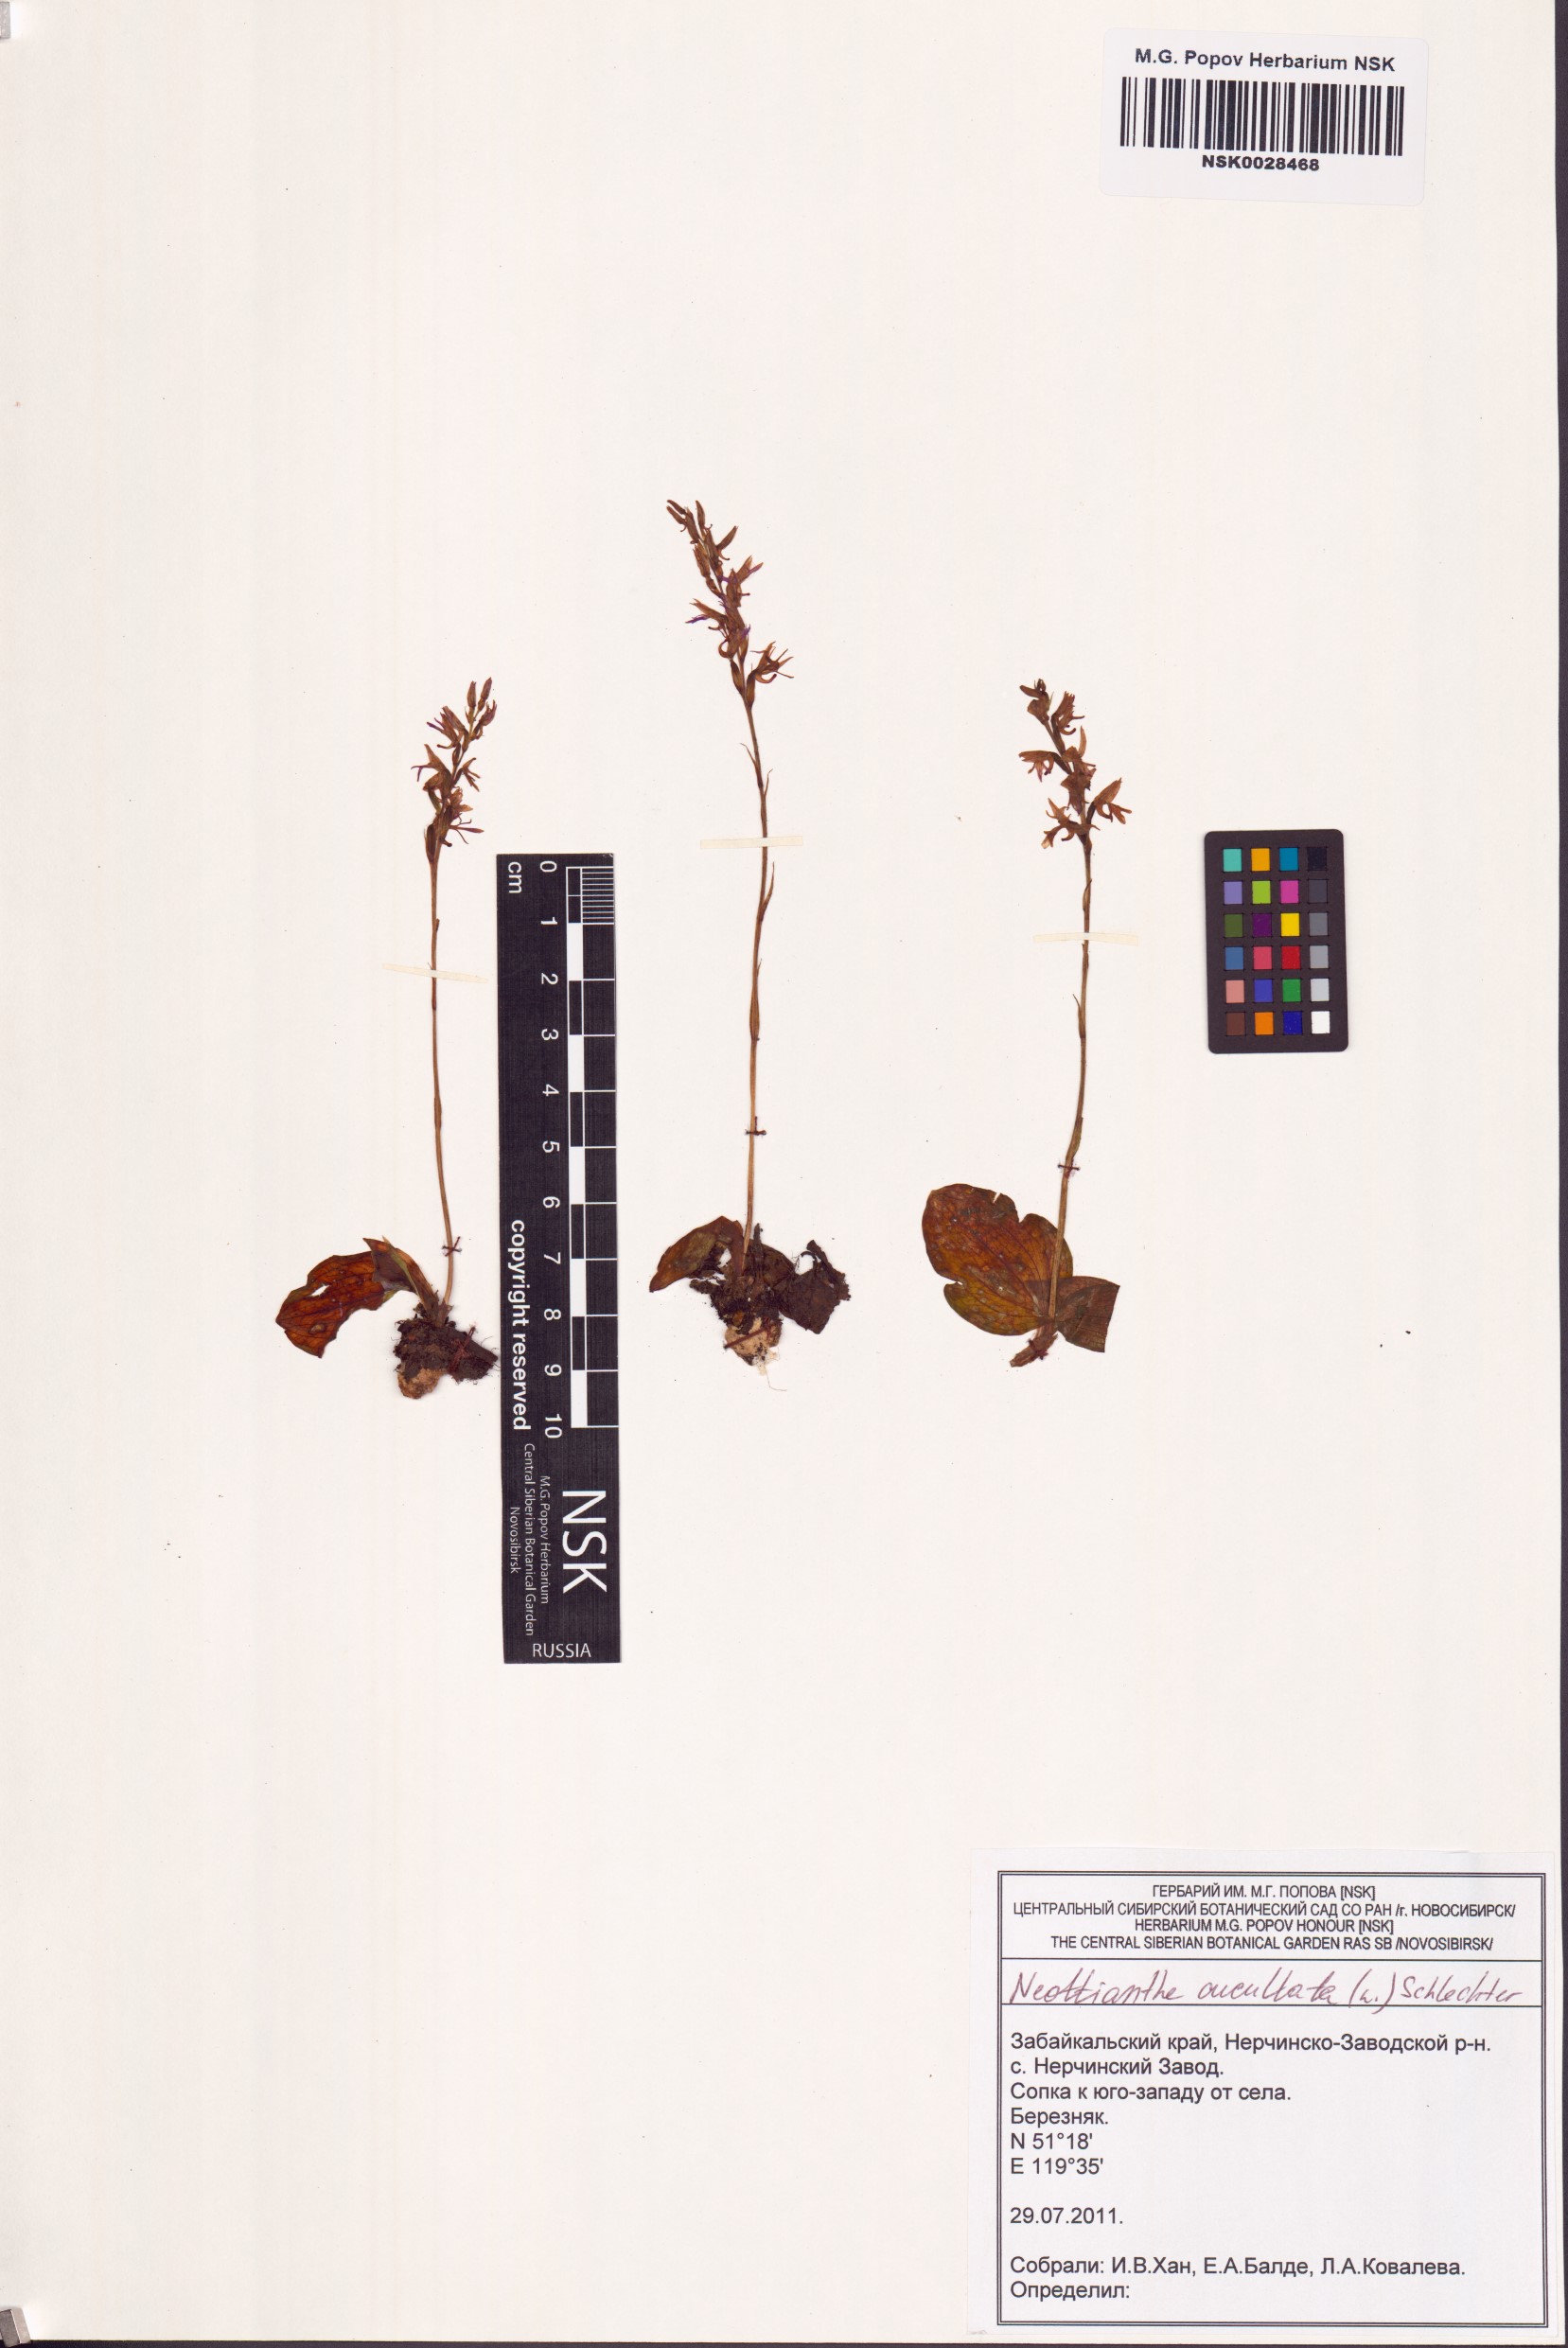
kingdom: Plantae
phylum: Tracheophyta
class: Liliopsida
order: Asparagales
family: Orchidaceae
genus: Hemipilia
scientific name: Hemipilia cucullata
